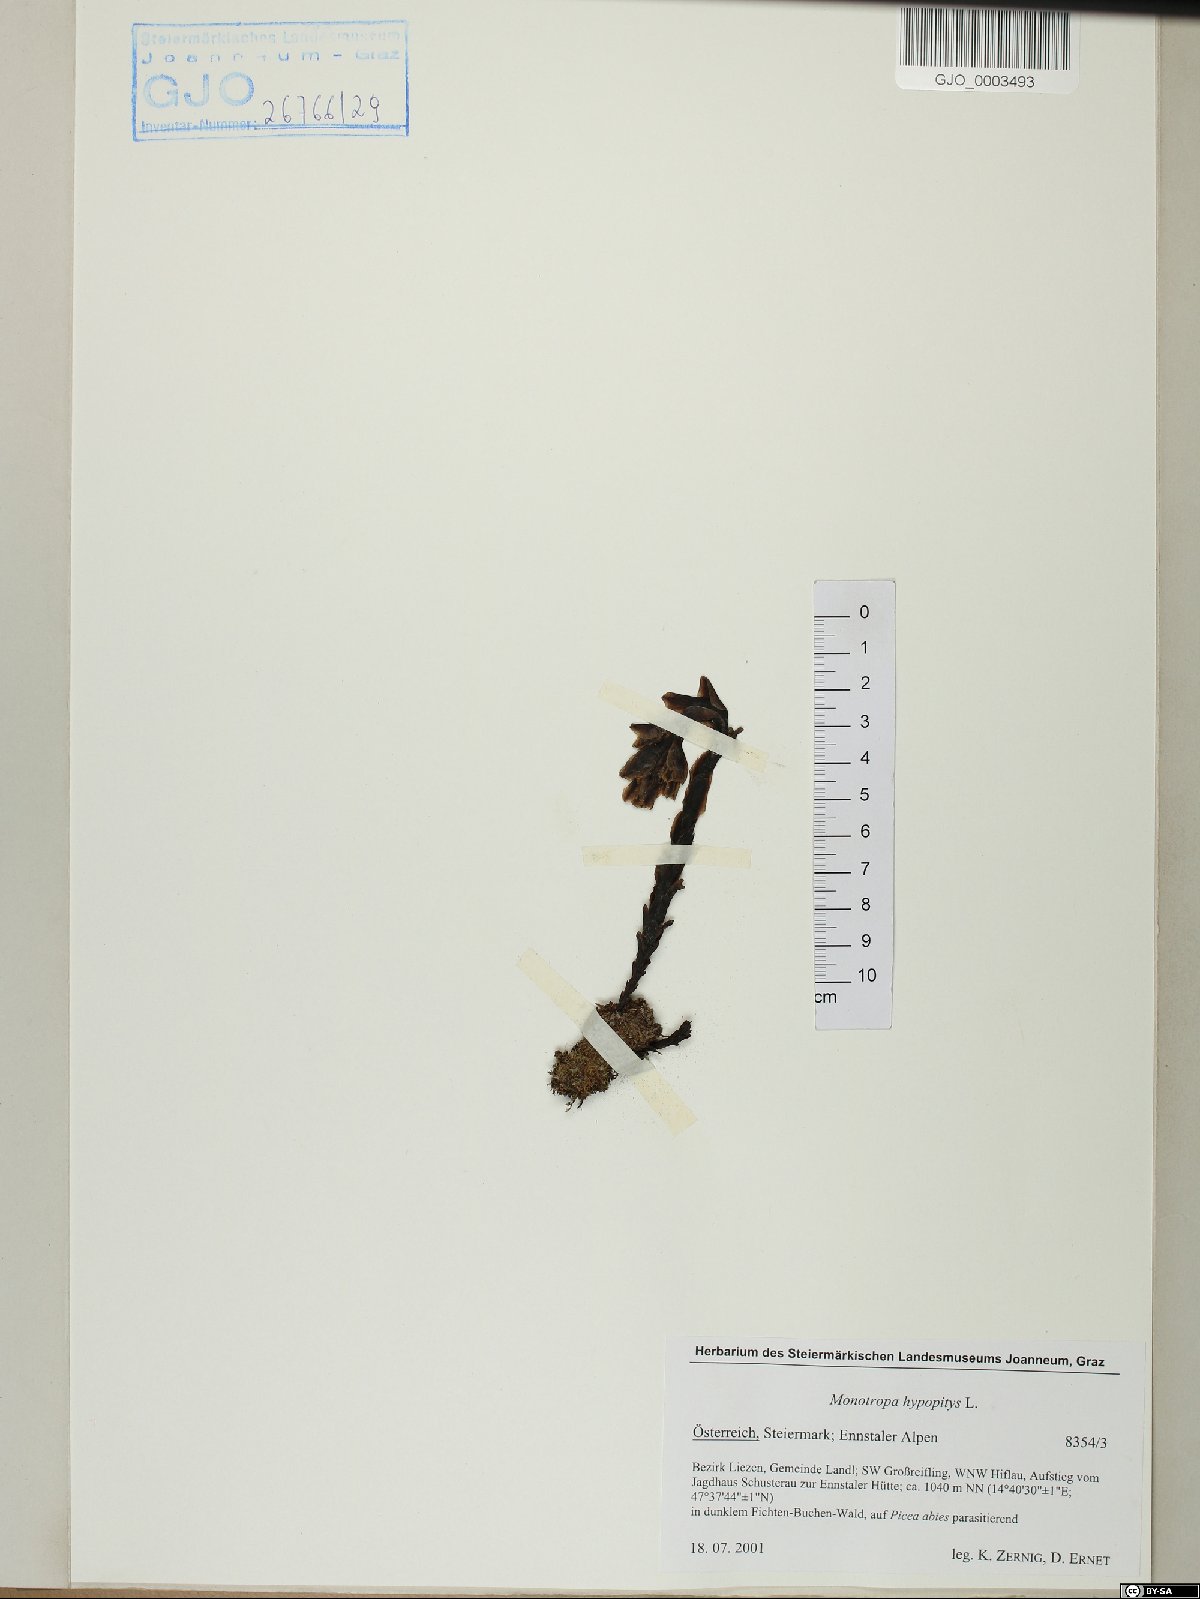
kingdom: Plantae
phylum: Tracheophyta
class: Magnoliopsida
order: Ericales
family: Ericaceae
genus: Hypopitys
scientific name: Hypopitys monotropa
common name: Yellow bird's-nest
